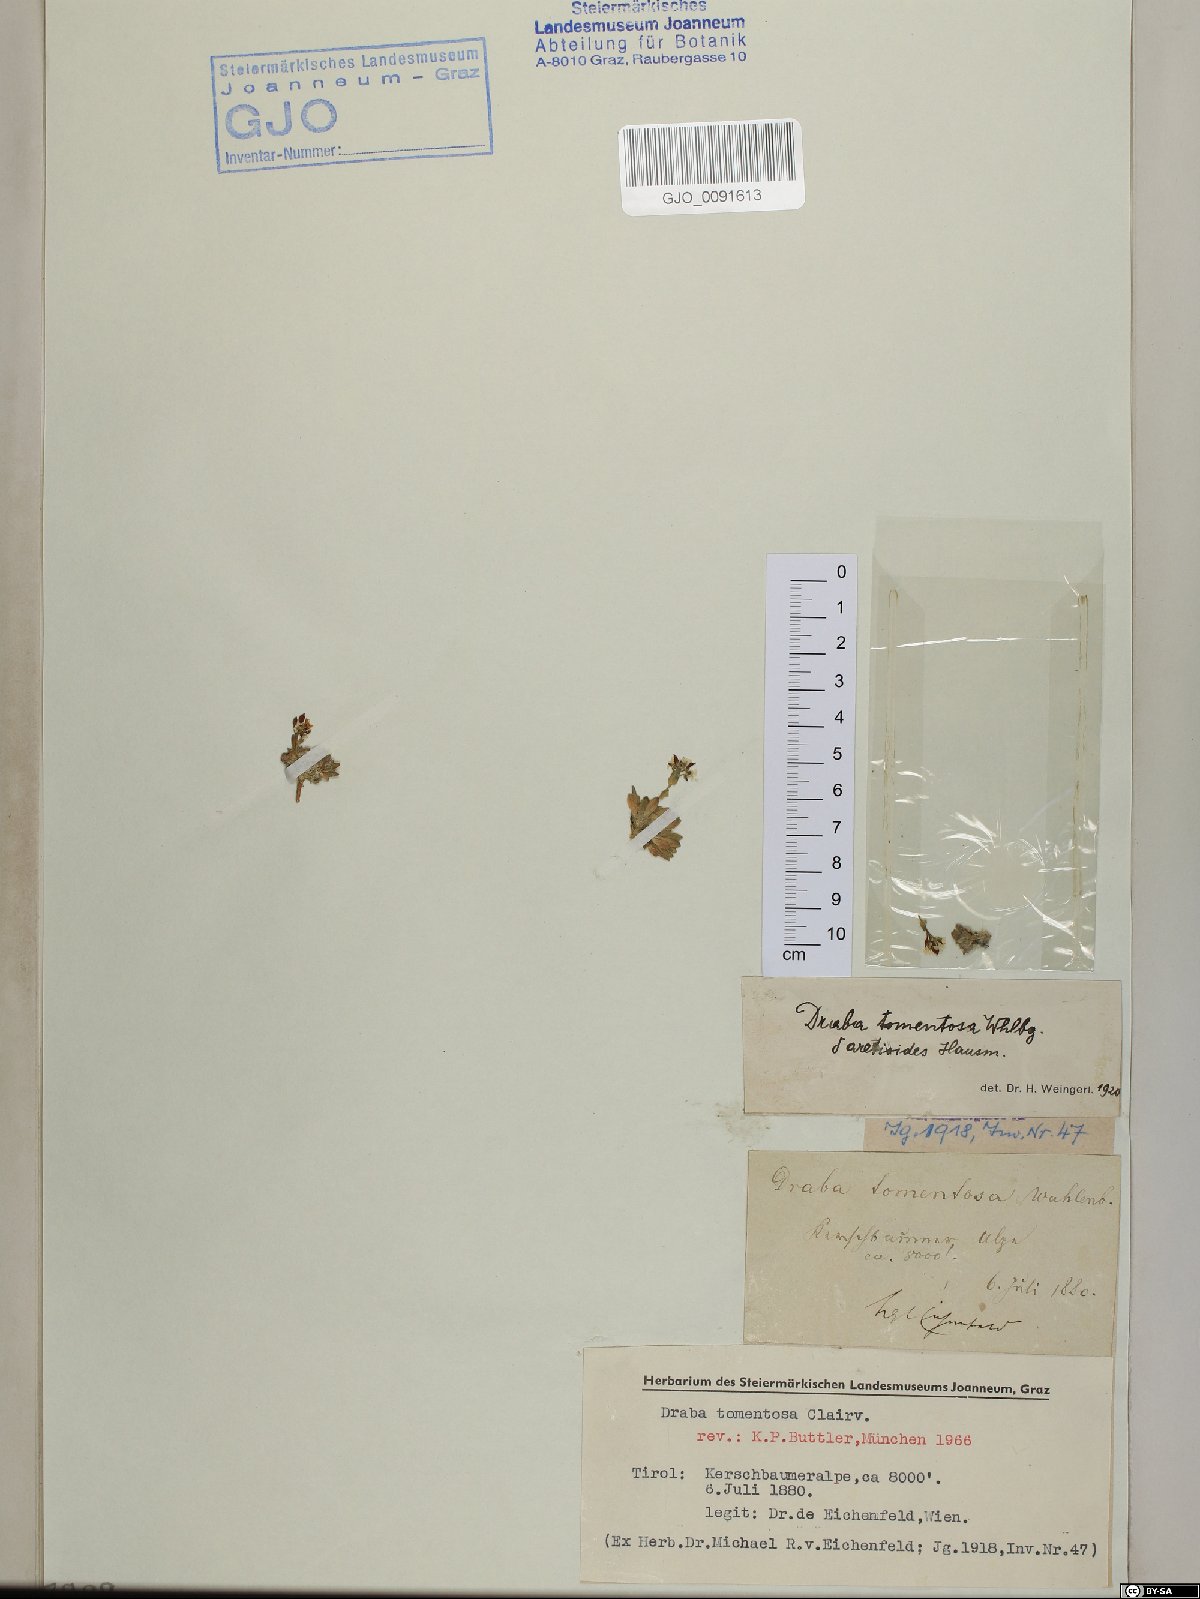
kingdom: Plantae
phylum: Tracheophyta
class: Magnoliopsida
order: Brassicales
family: Brassicaceae
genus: Draba
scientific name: Draba tomentosa
